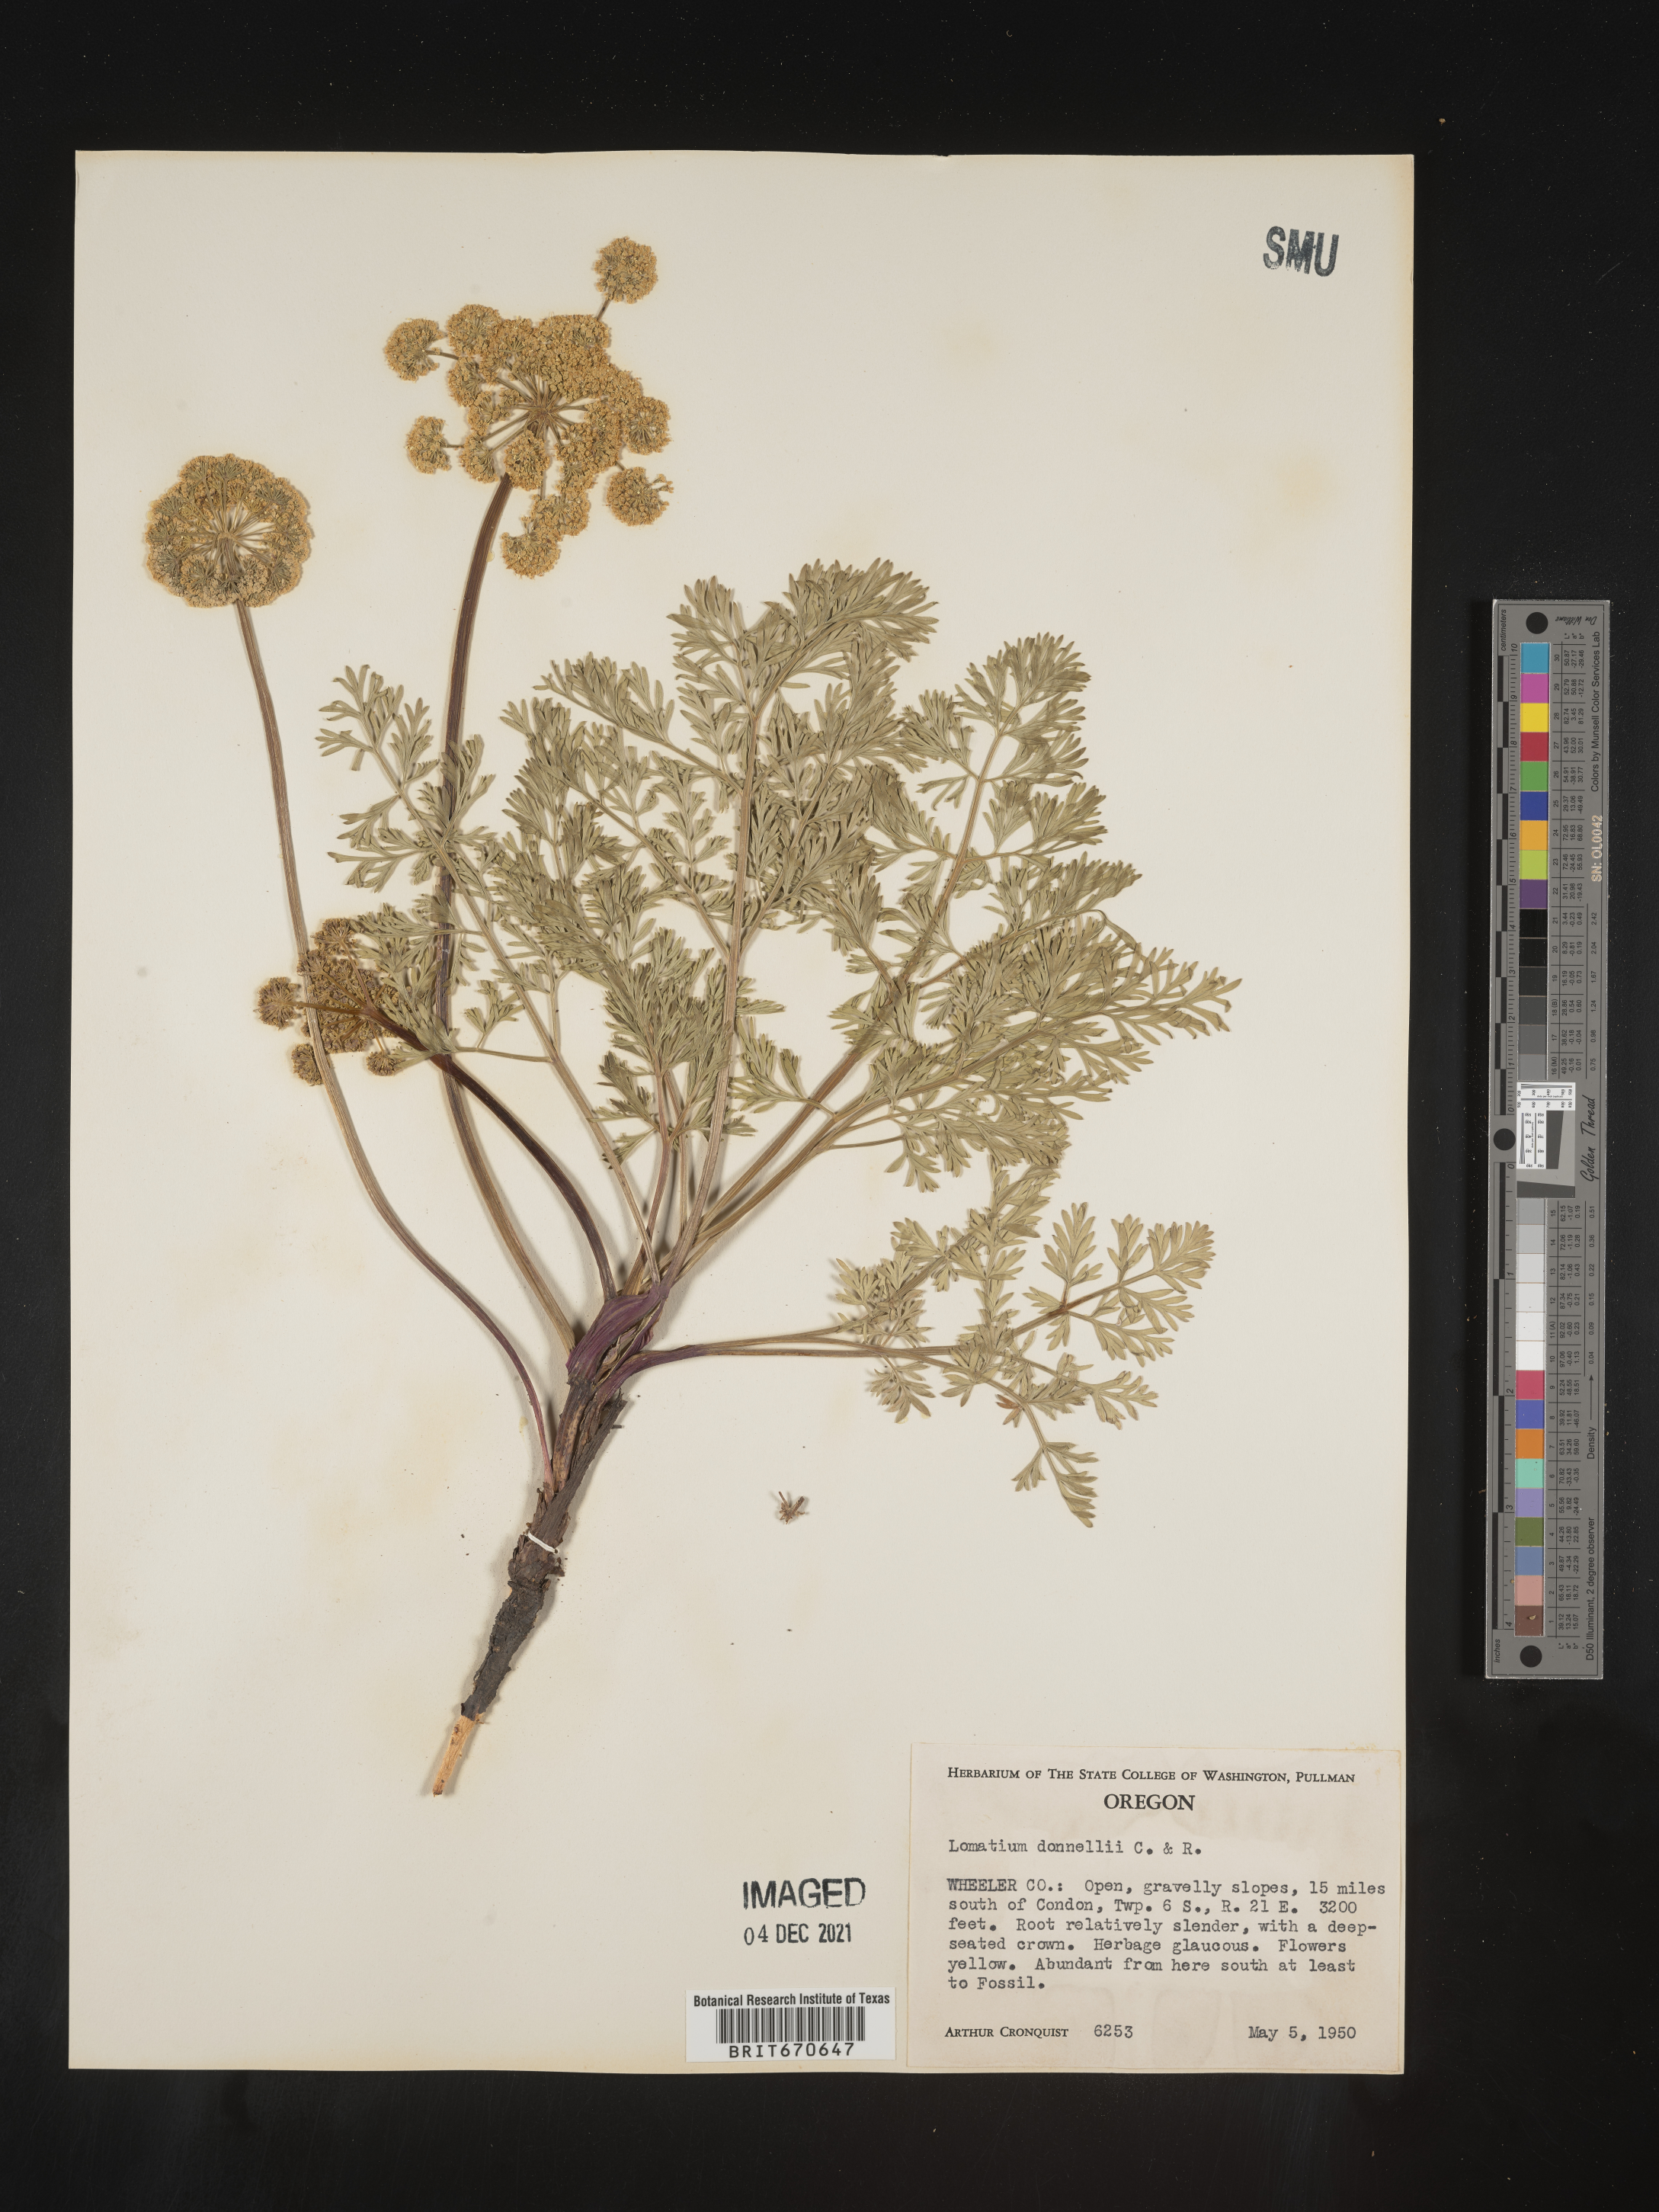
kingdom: Plantae
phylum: Tracheophyta
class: Magnoliopsida
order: Apiales
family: Apiaceae
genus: Lomatium
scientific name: Lomatium
